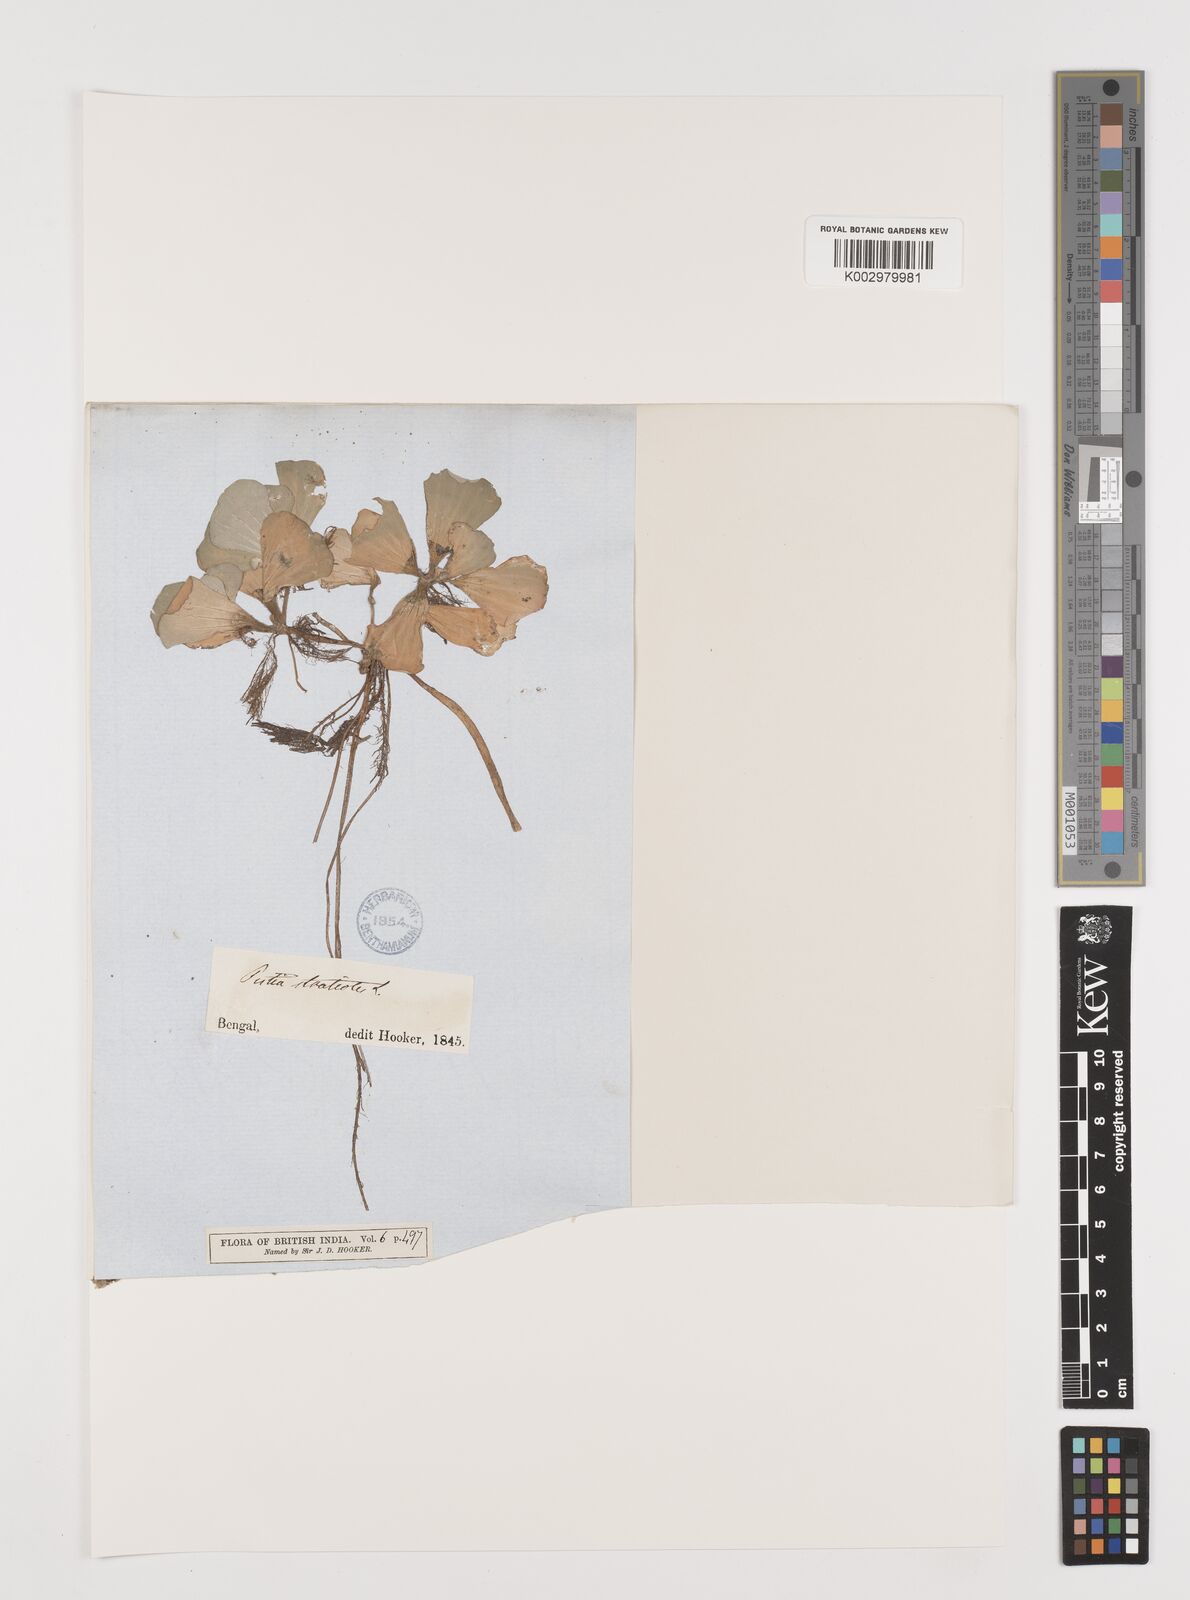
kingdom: Plantae
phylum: Tracheophyta
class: Liliopsida
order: Alismatales
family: Araceae
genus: Pistia
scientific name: Pistia stratiotes
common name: Water lettuce
